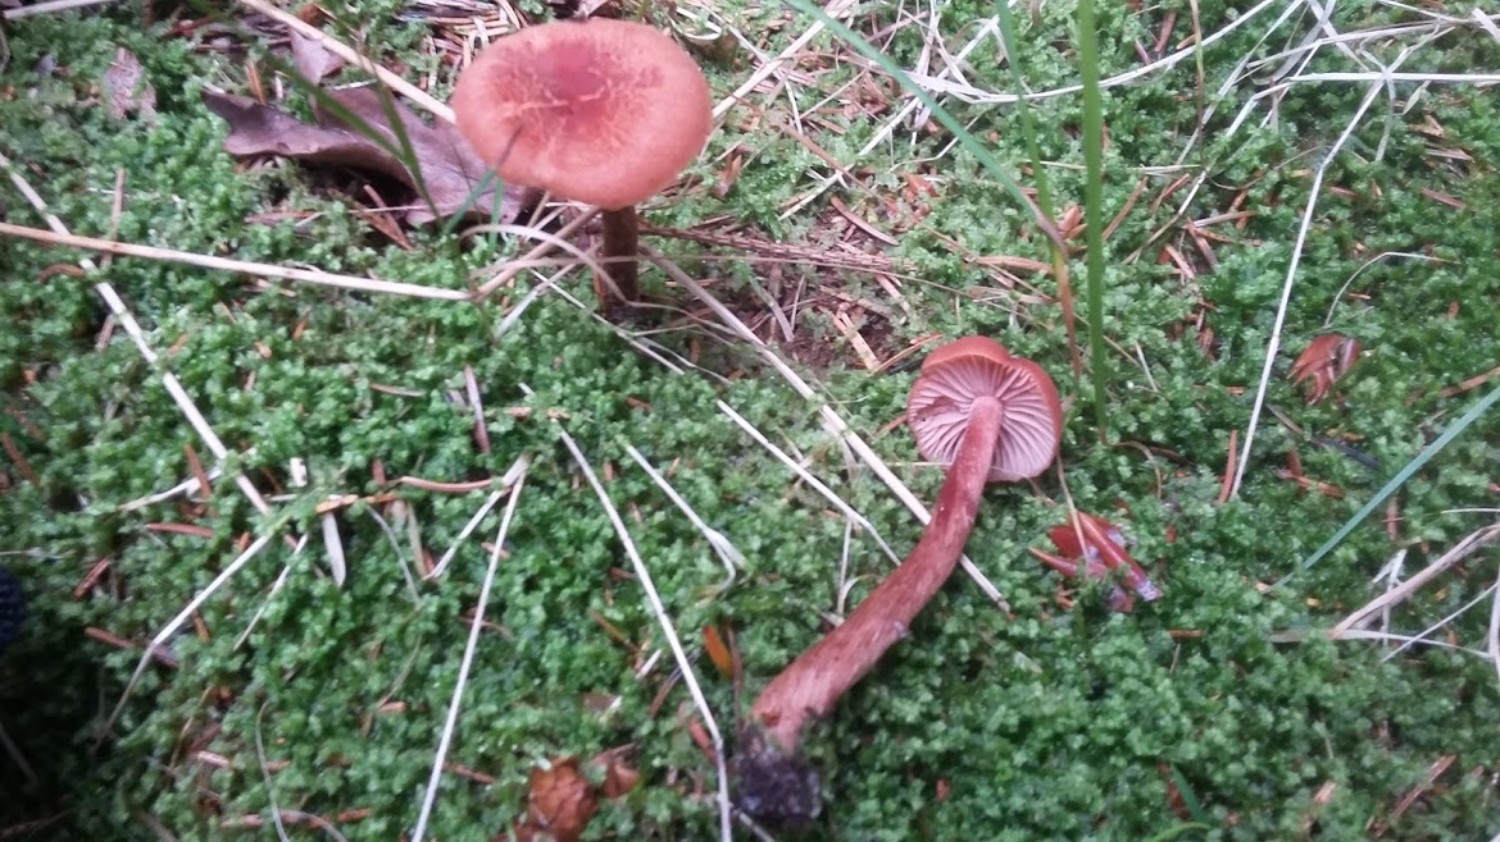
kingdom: Fungi
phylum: Basidiomycota
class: Agaricomycetes
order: Agaricales
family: Hydnangiaceae
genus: Laccaria
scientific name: Laccaria laccata
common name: rød ametysthat
